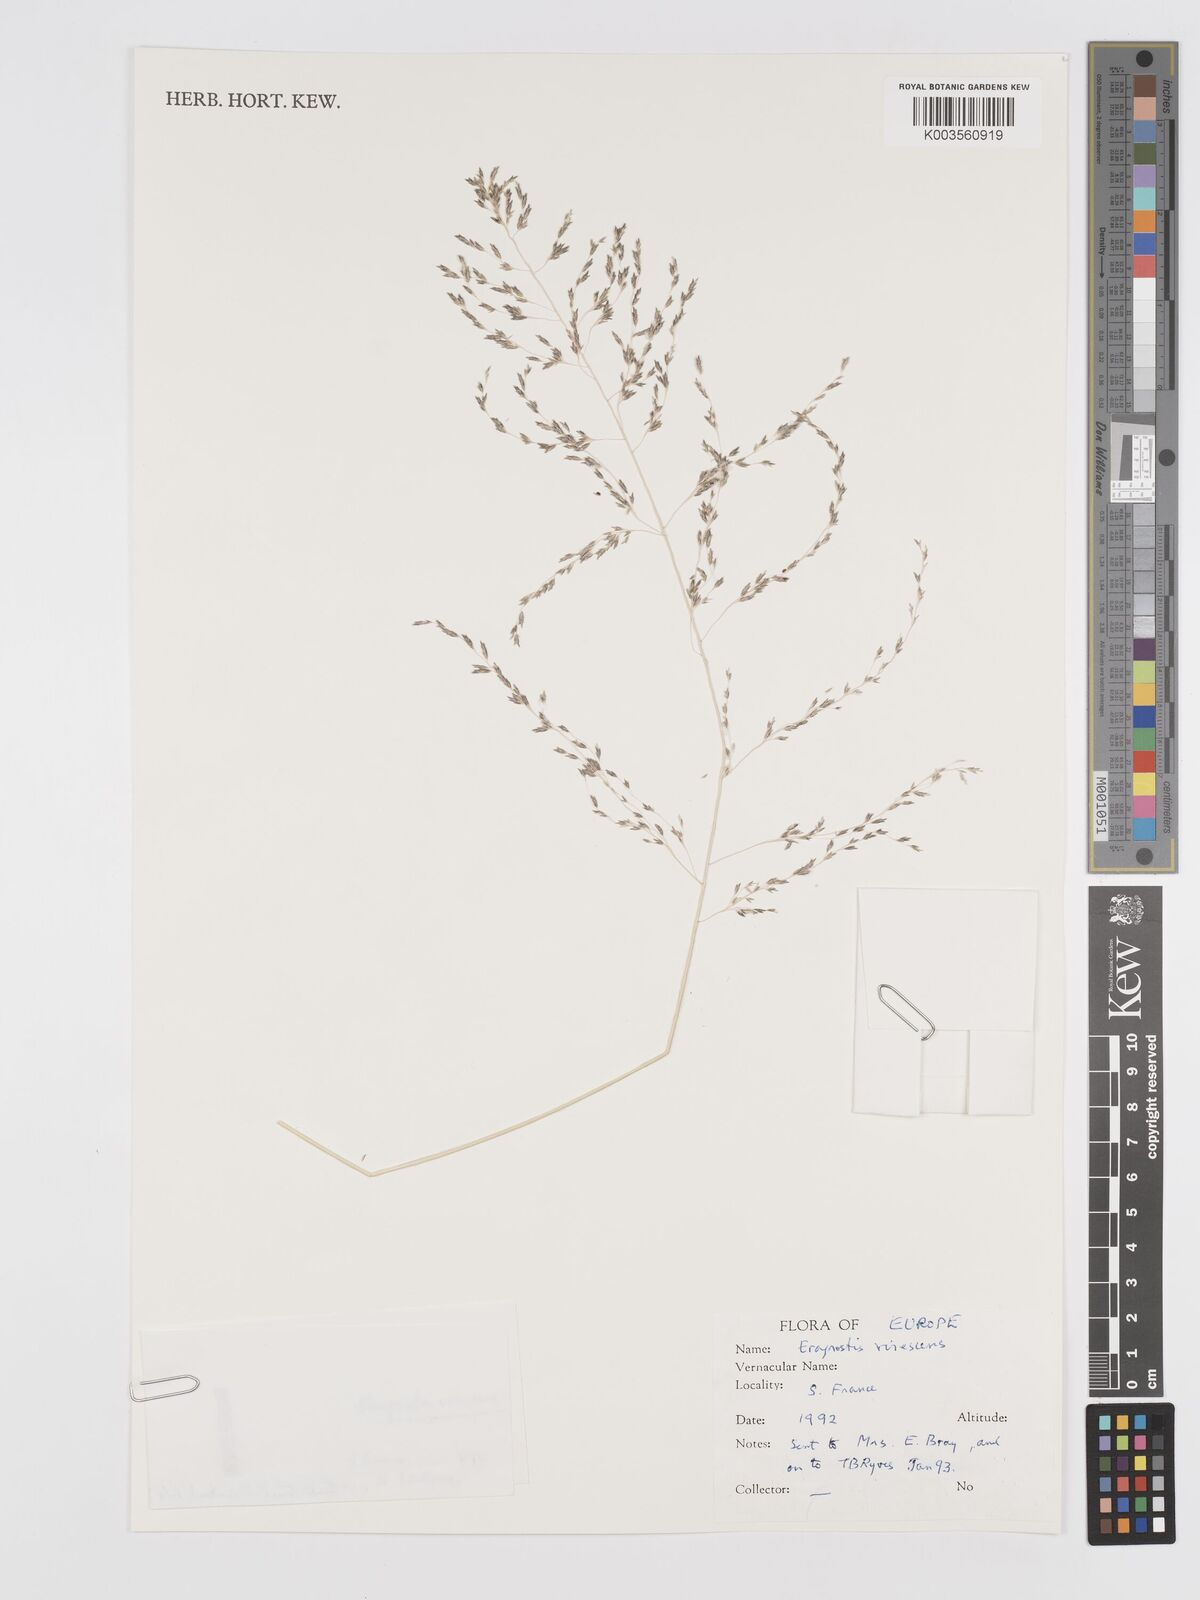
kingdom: Plantae
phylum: Tracheophyta
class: Liliopsida
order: Poales
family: Poaceae
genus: Eragrostis
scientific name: Eragrostis mexicana
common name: Mexican love grass
